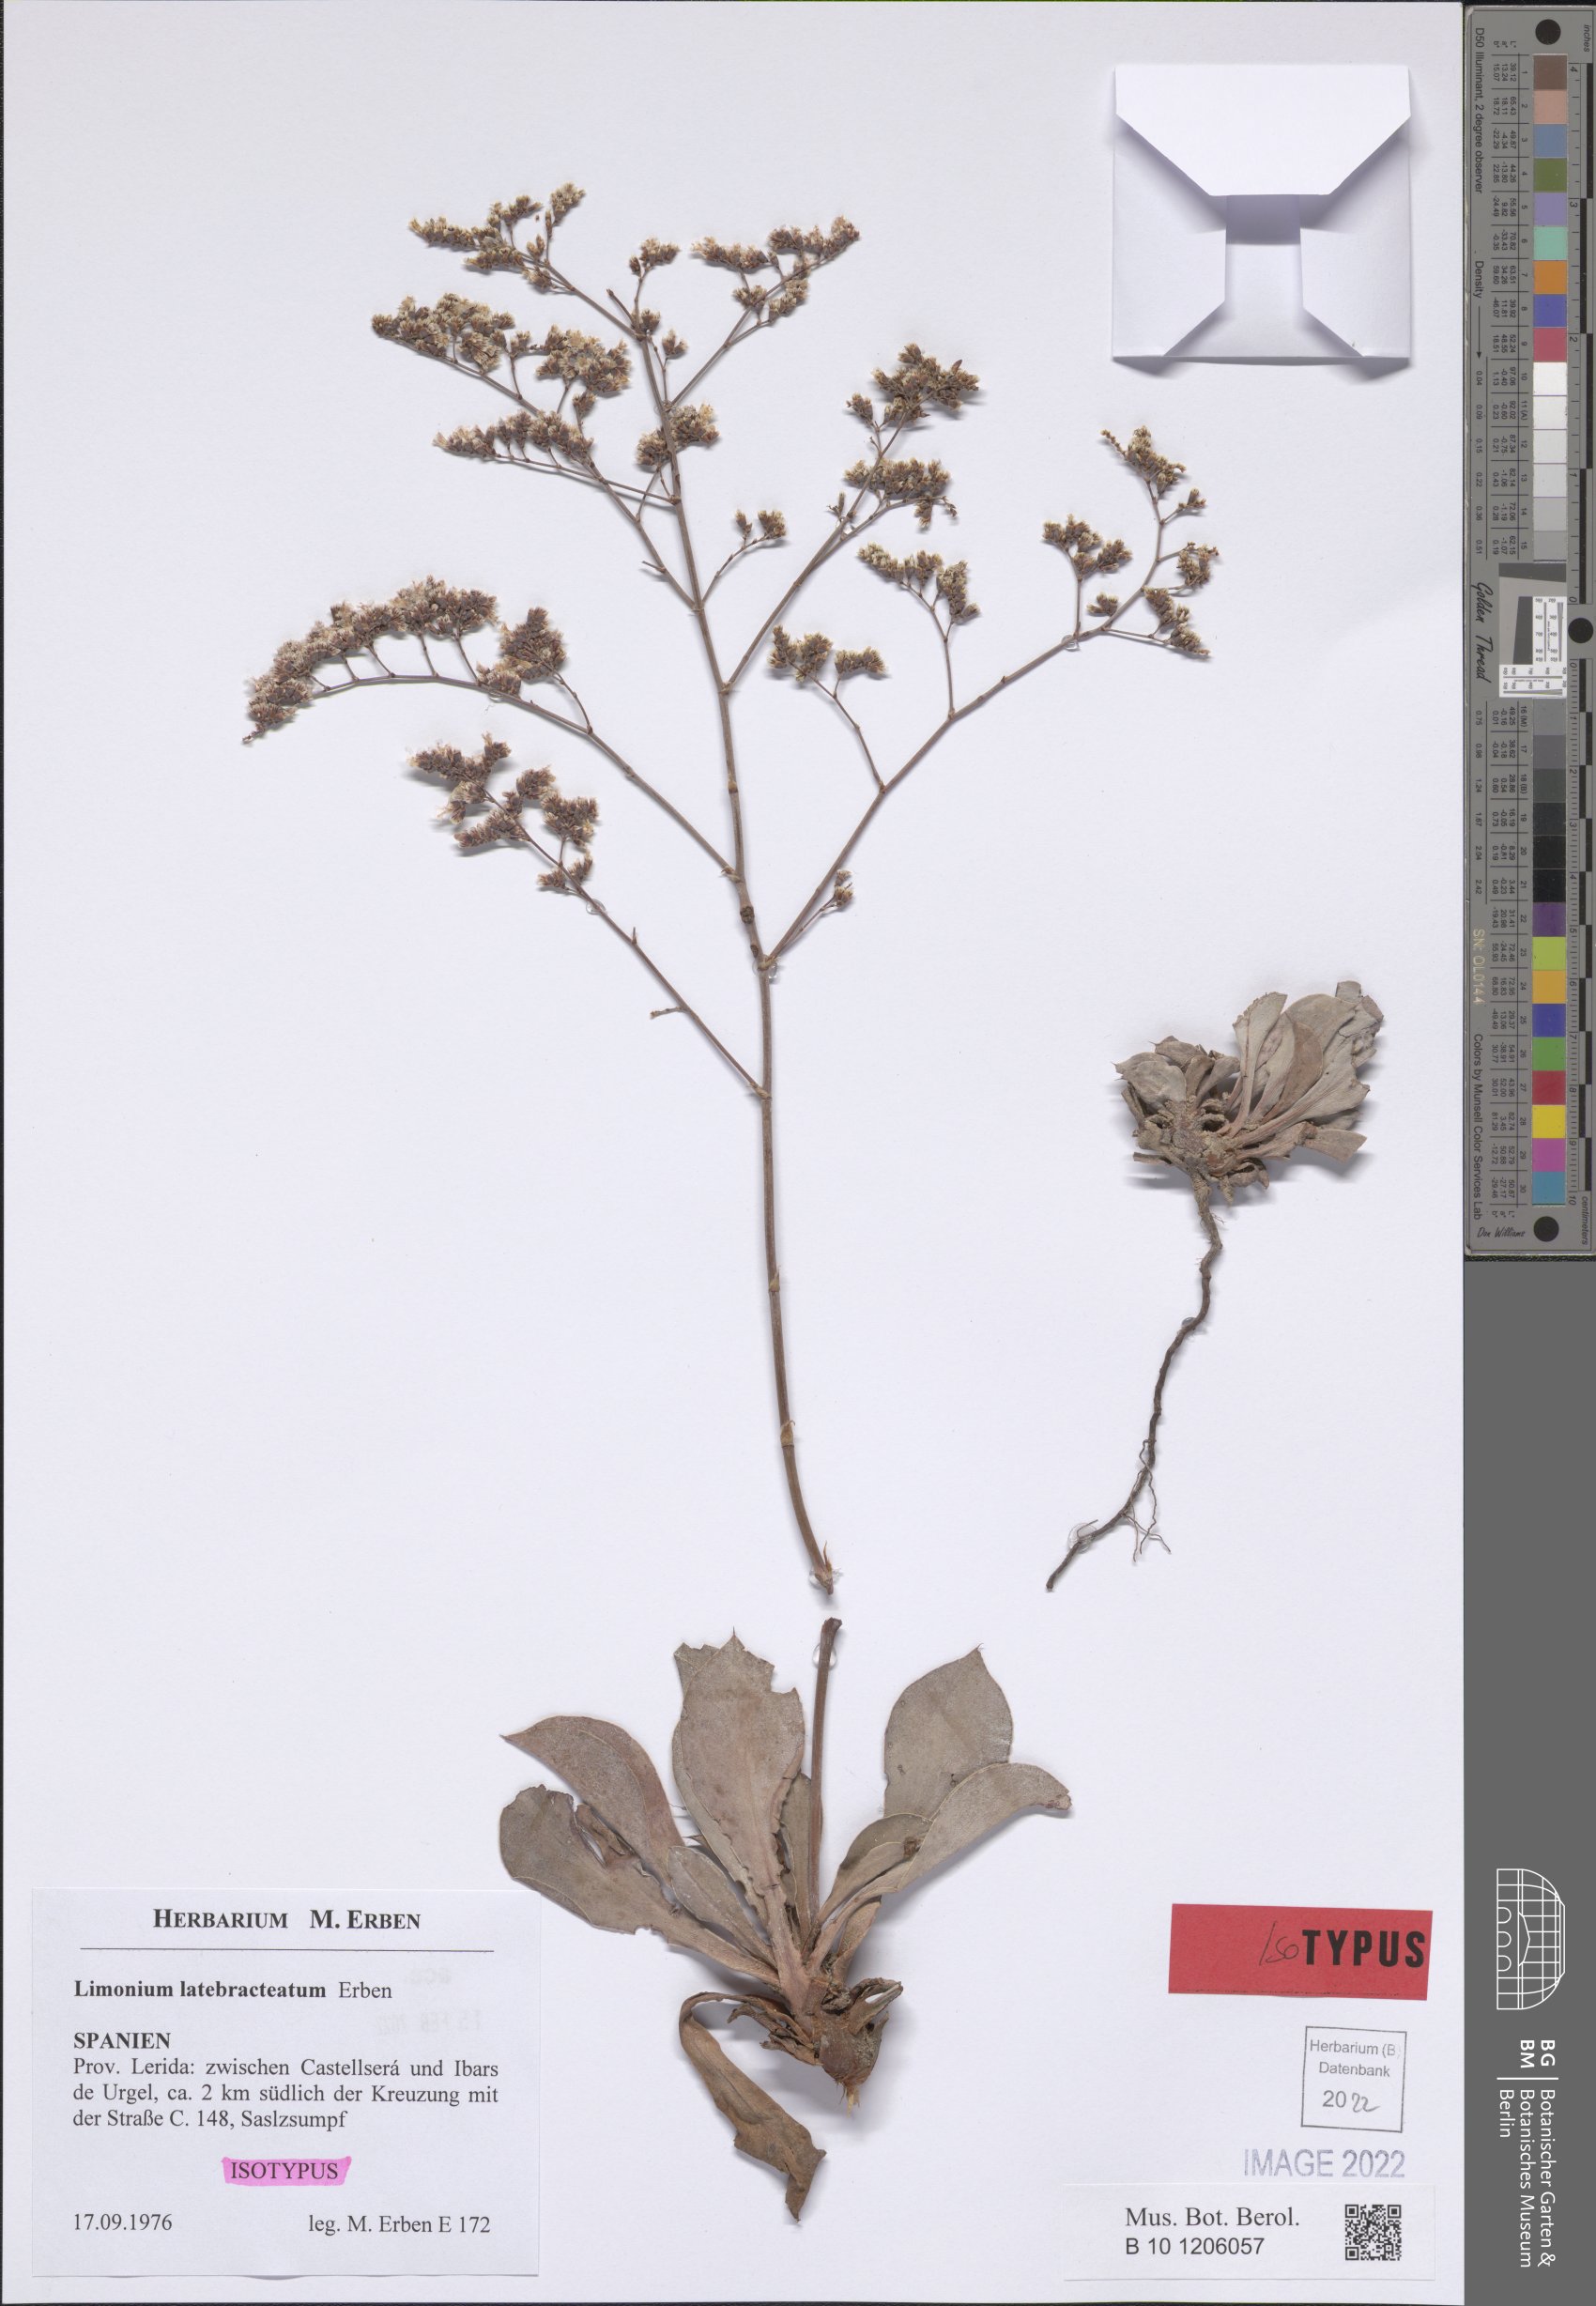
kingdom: Plantae
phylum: Tracheophyta
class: Magnoliopsida
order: Caryophyllales
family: Plumbaginaceae
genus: Limonium
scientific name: Limonium latebracteatum
